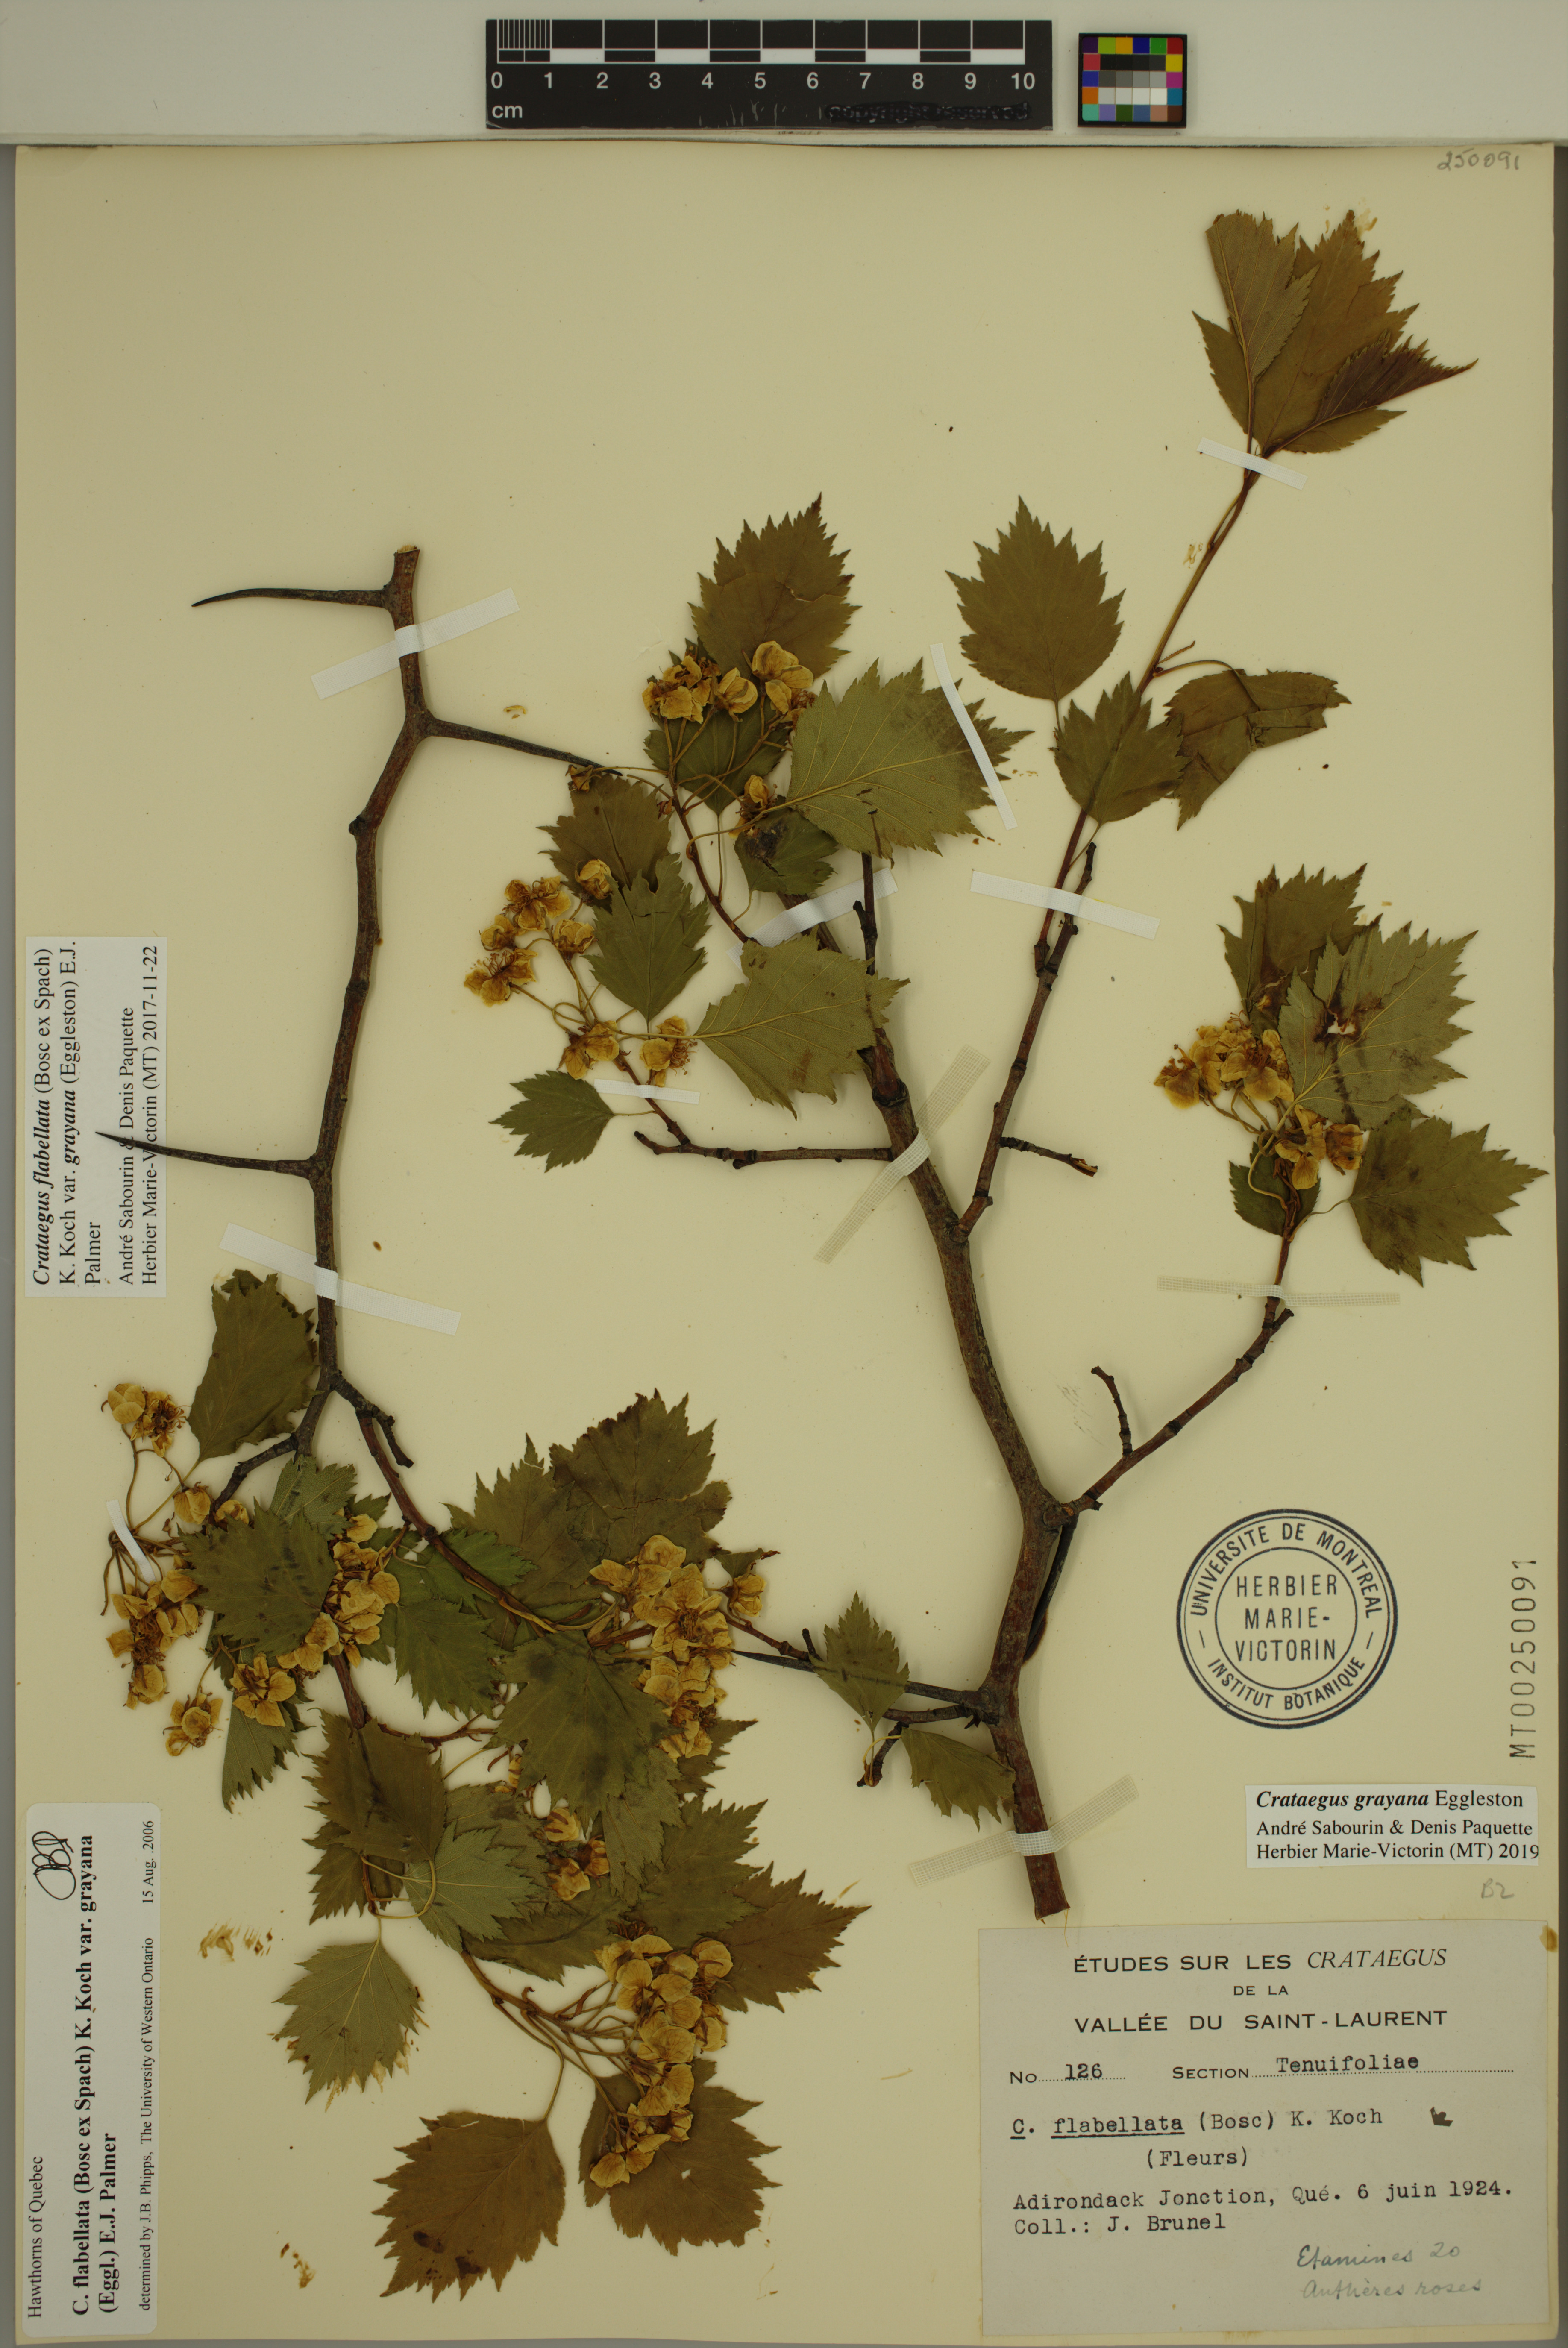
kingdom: Plantae
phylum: Tracheophyta
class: Magnoliopsida
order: Rosales
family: Rosaceae
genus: Crataegus
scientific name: Crataegus schuettei
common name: Schuette's hawthorn
